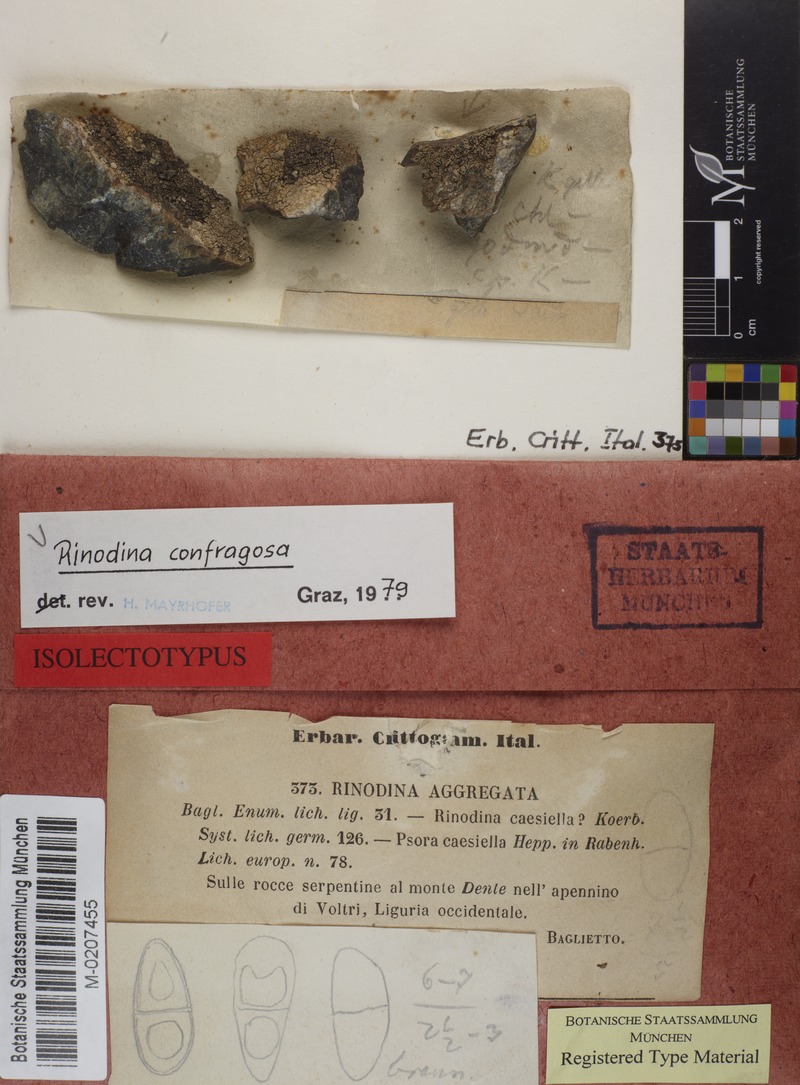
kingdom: Fungi
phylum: Ascomycota
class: Lecanoromycetes
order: Caliciales
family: Physciaceae
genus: Rinodina
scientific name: Rinodina confragosa
